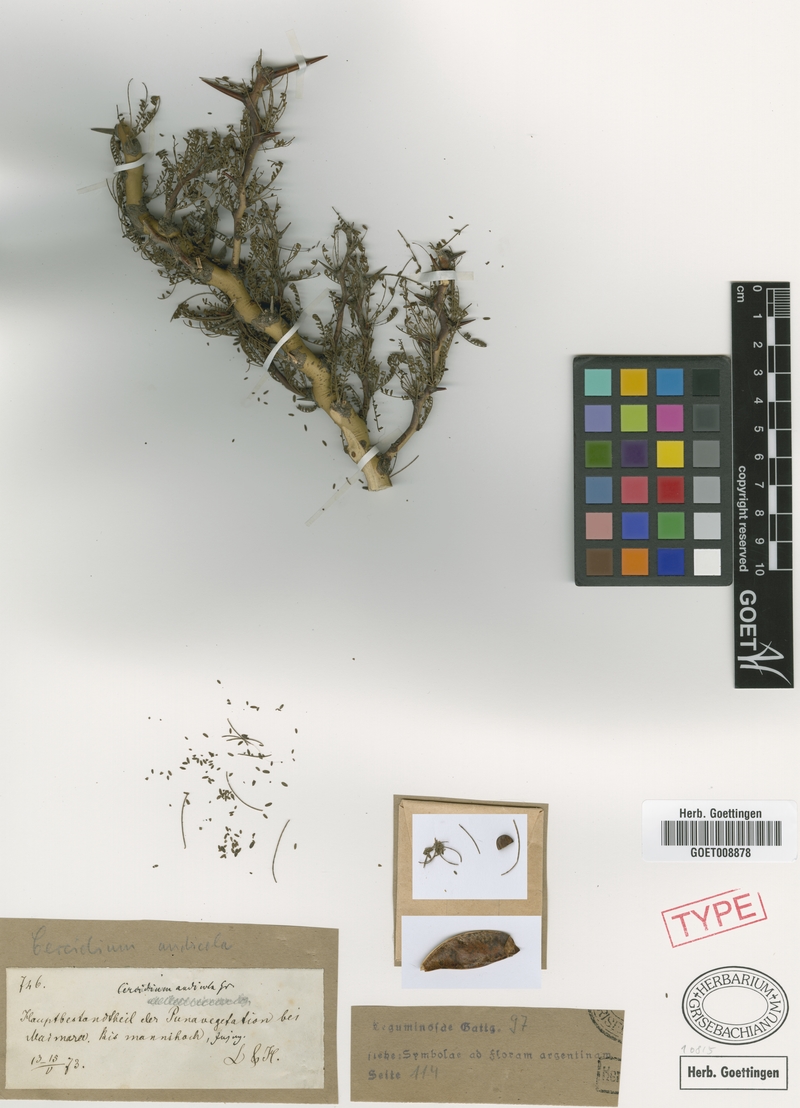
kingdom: Plantae
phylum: Tracheophyta
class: Magnoliopsida
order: Fabales
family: Fabaceae
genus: Parkinsonia
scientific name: Parkinsonia andicola
